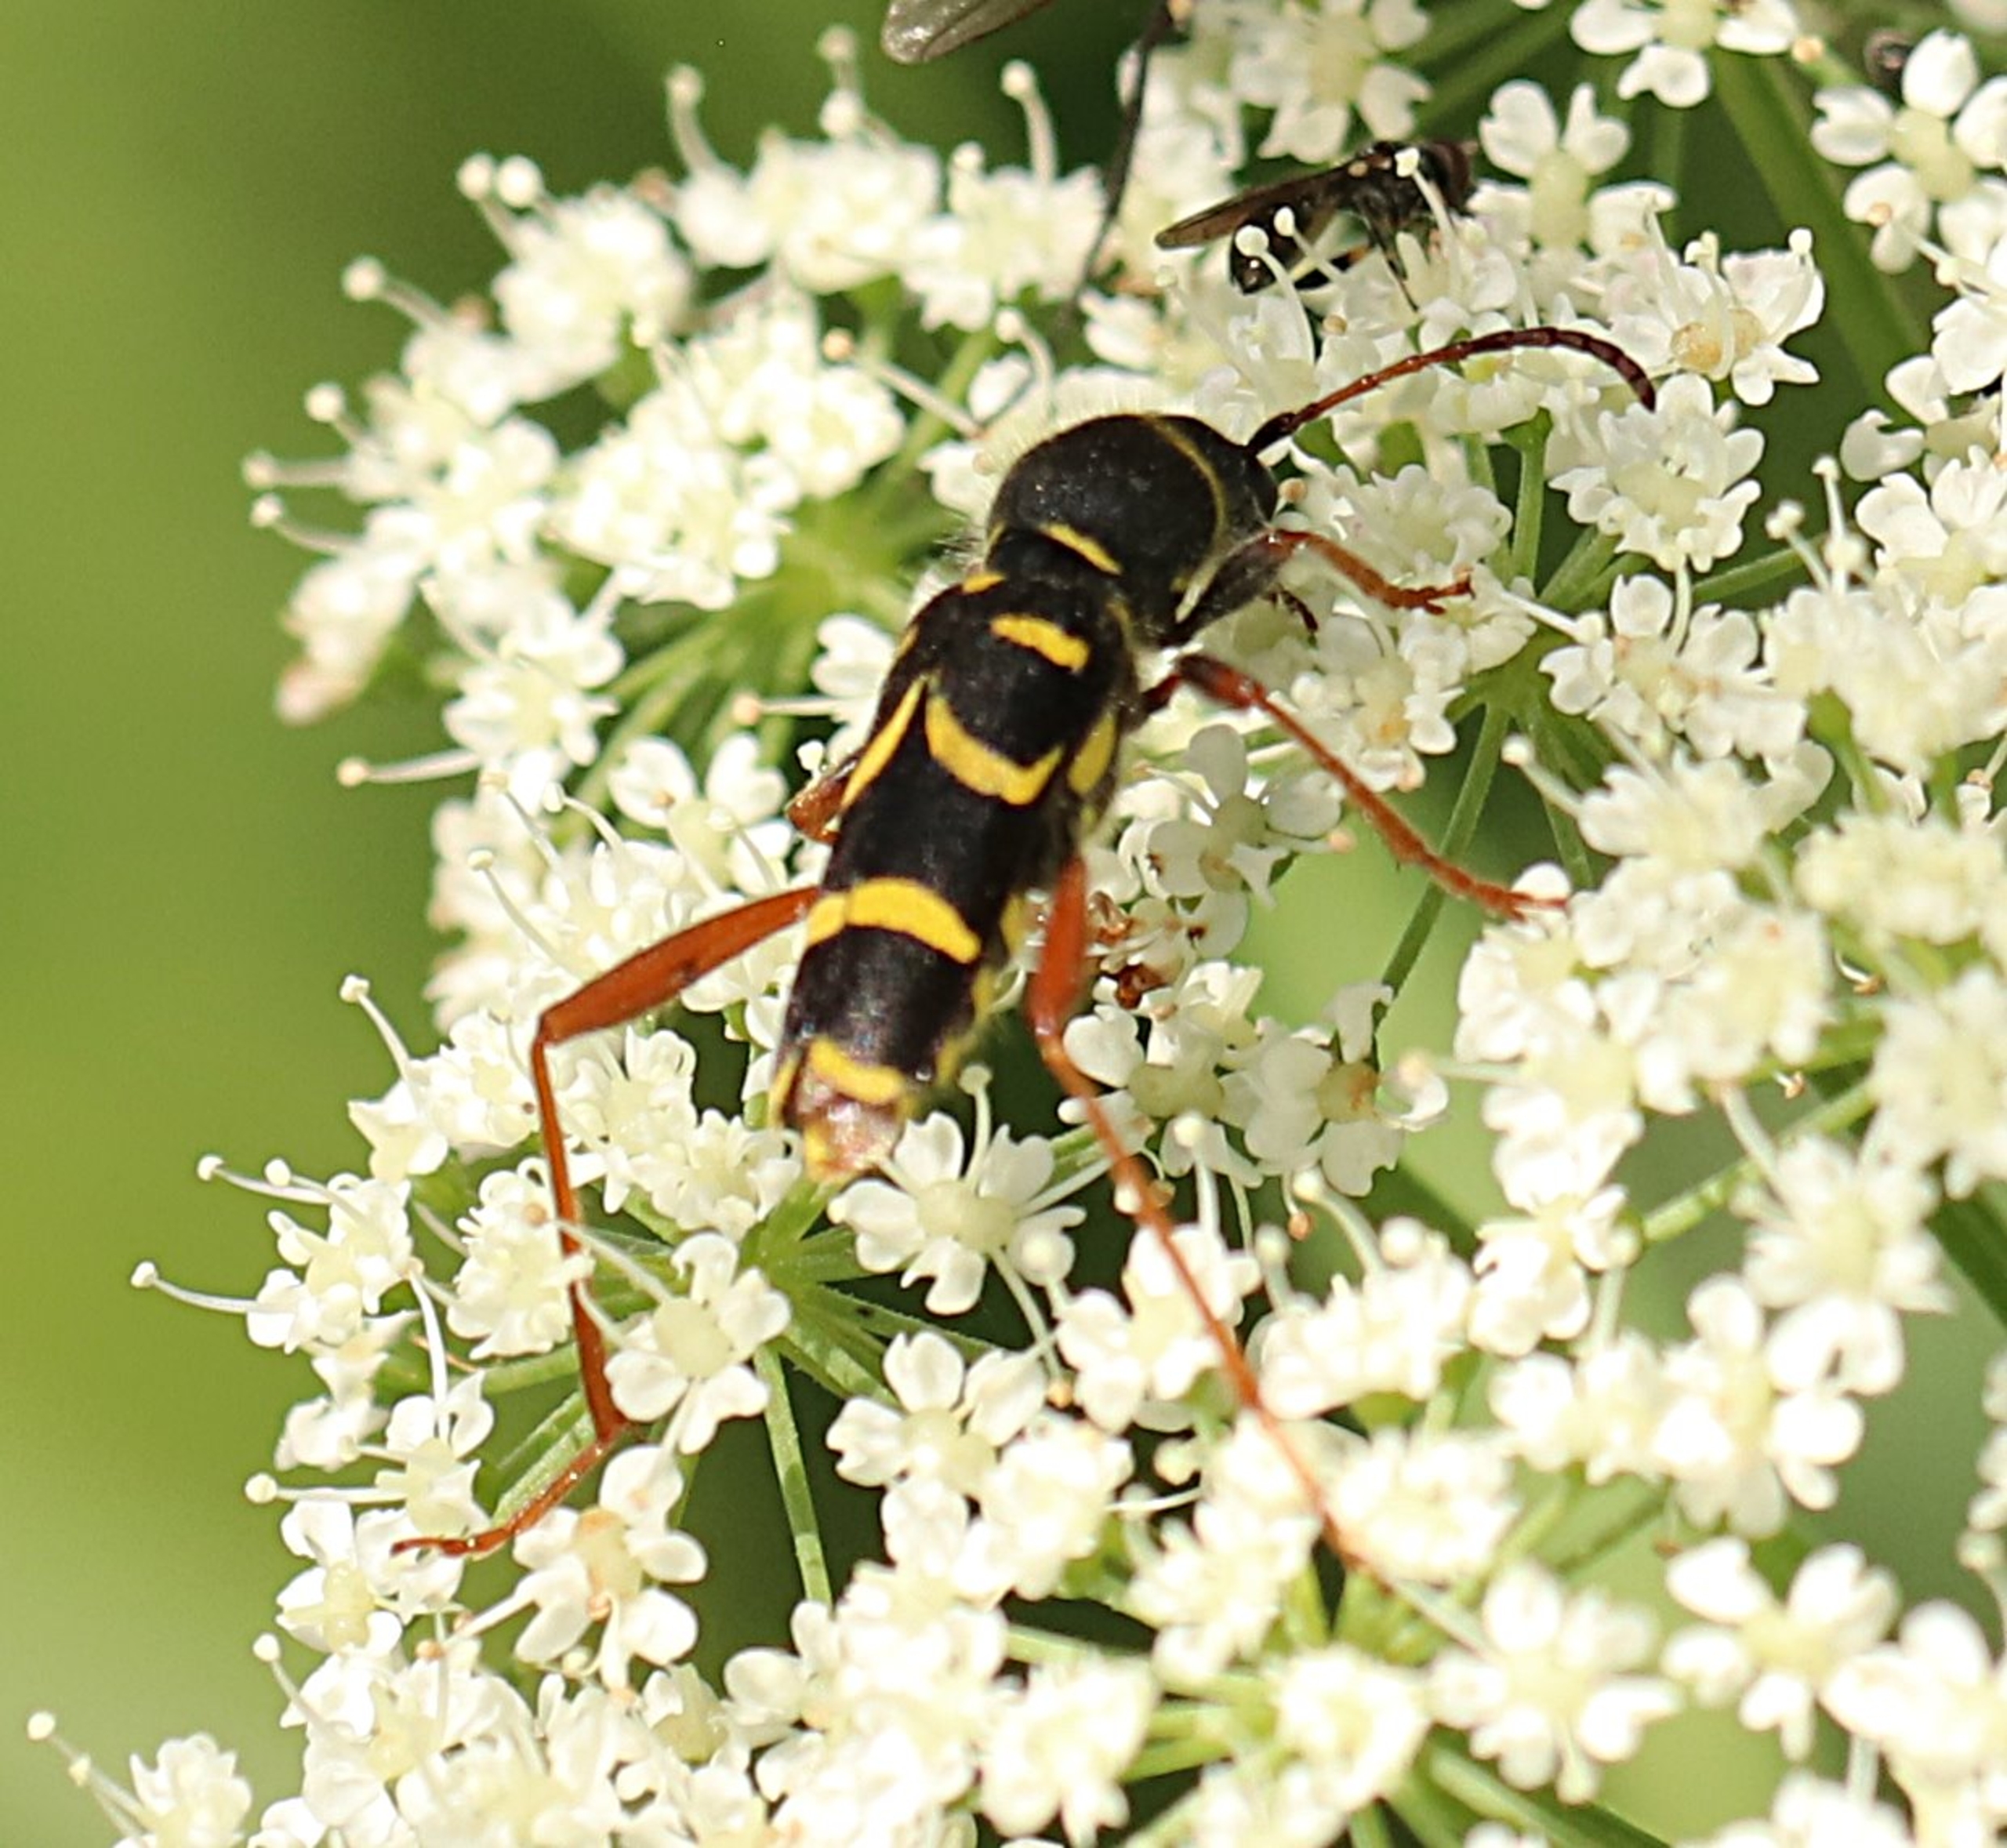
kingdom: Animalia
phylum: Arthropoda
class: Insecta
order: Coleoptera
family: Cerambycidae
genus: Clytus
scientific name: Clytus arietis
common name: Lille hvepsebuk
